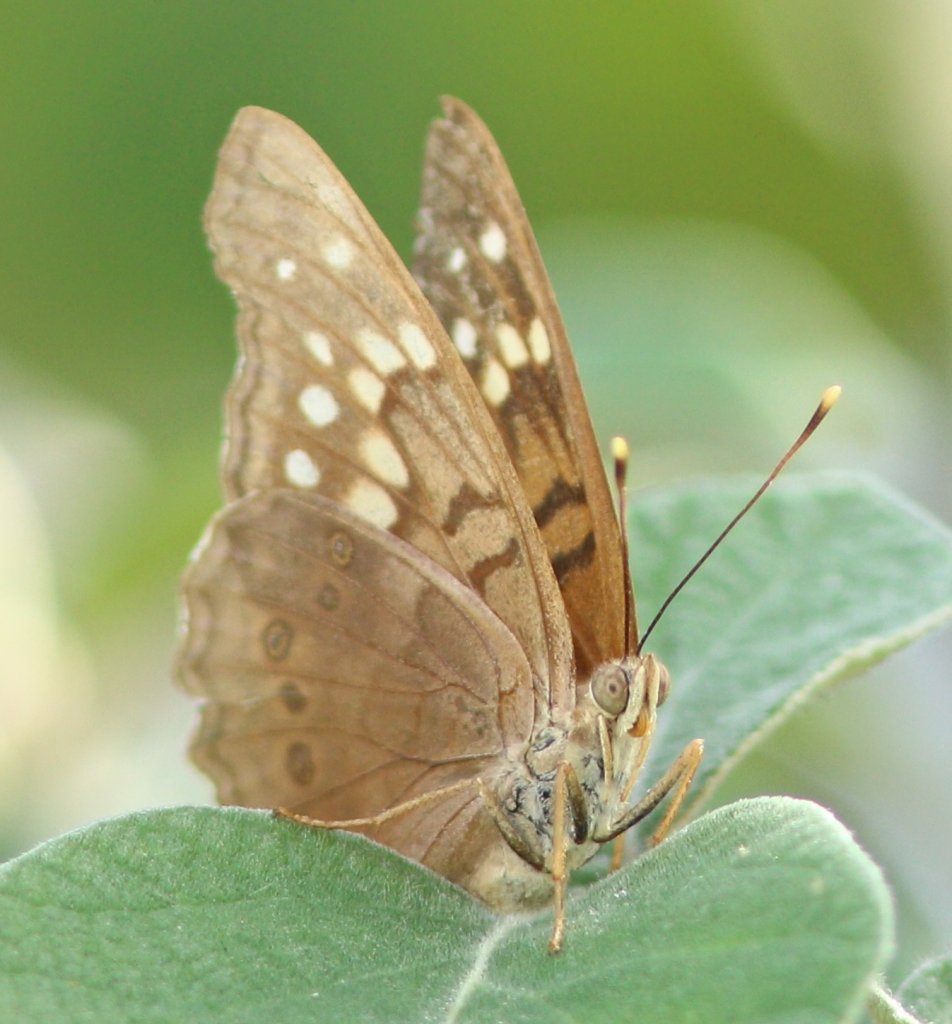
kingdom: Animalia
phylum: Arthropoda
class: Insecta
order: Lepidoptera
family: Nymphalidae
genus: Asterocampa
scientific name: Asterocampa clyton
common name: Tawny Emperor
